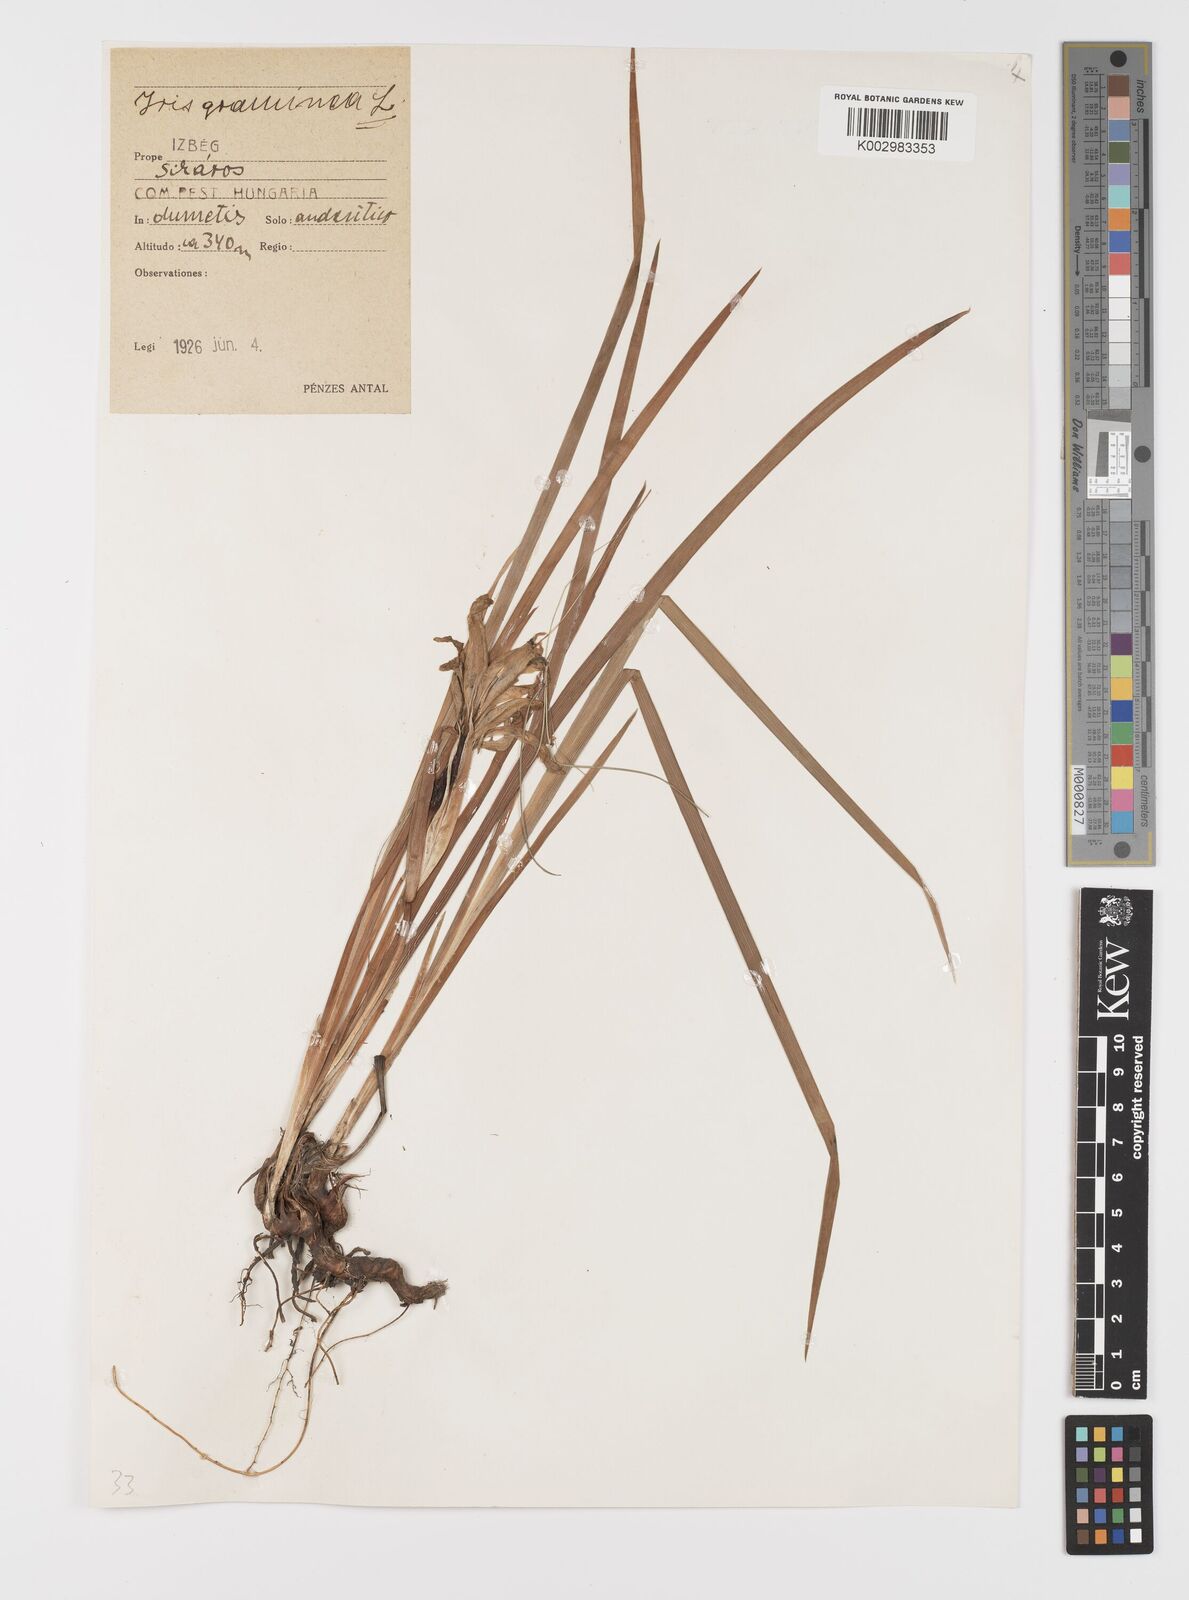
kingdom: Plantae
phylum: Tracheophyta
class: Liliopsida
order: Asparagales
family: Iridaceae
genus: Iris
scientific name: Iris graminea
